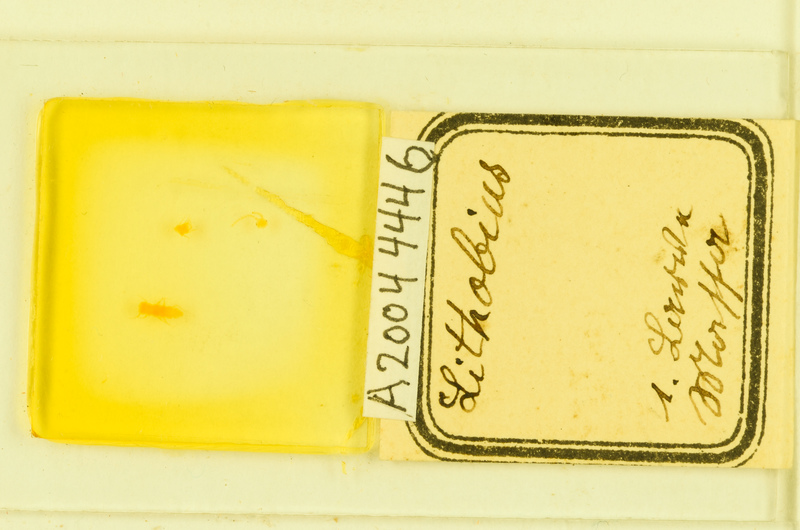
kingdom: Animalia
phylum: Arthropoda
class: Chilopoda
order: Lithobiomorpha
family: Lithobiidae
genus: Lithobius
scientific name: Lithobius
